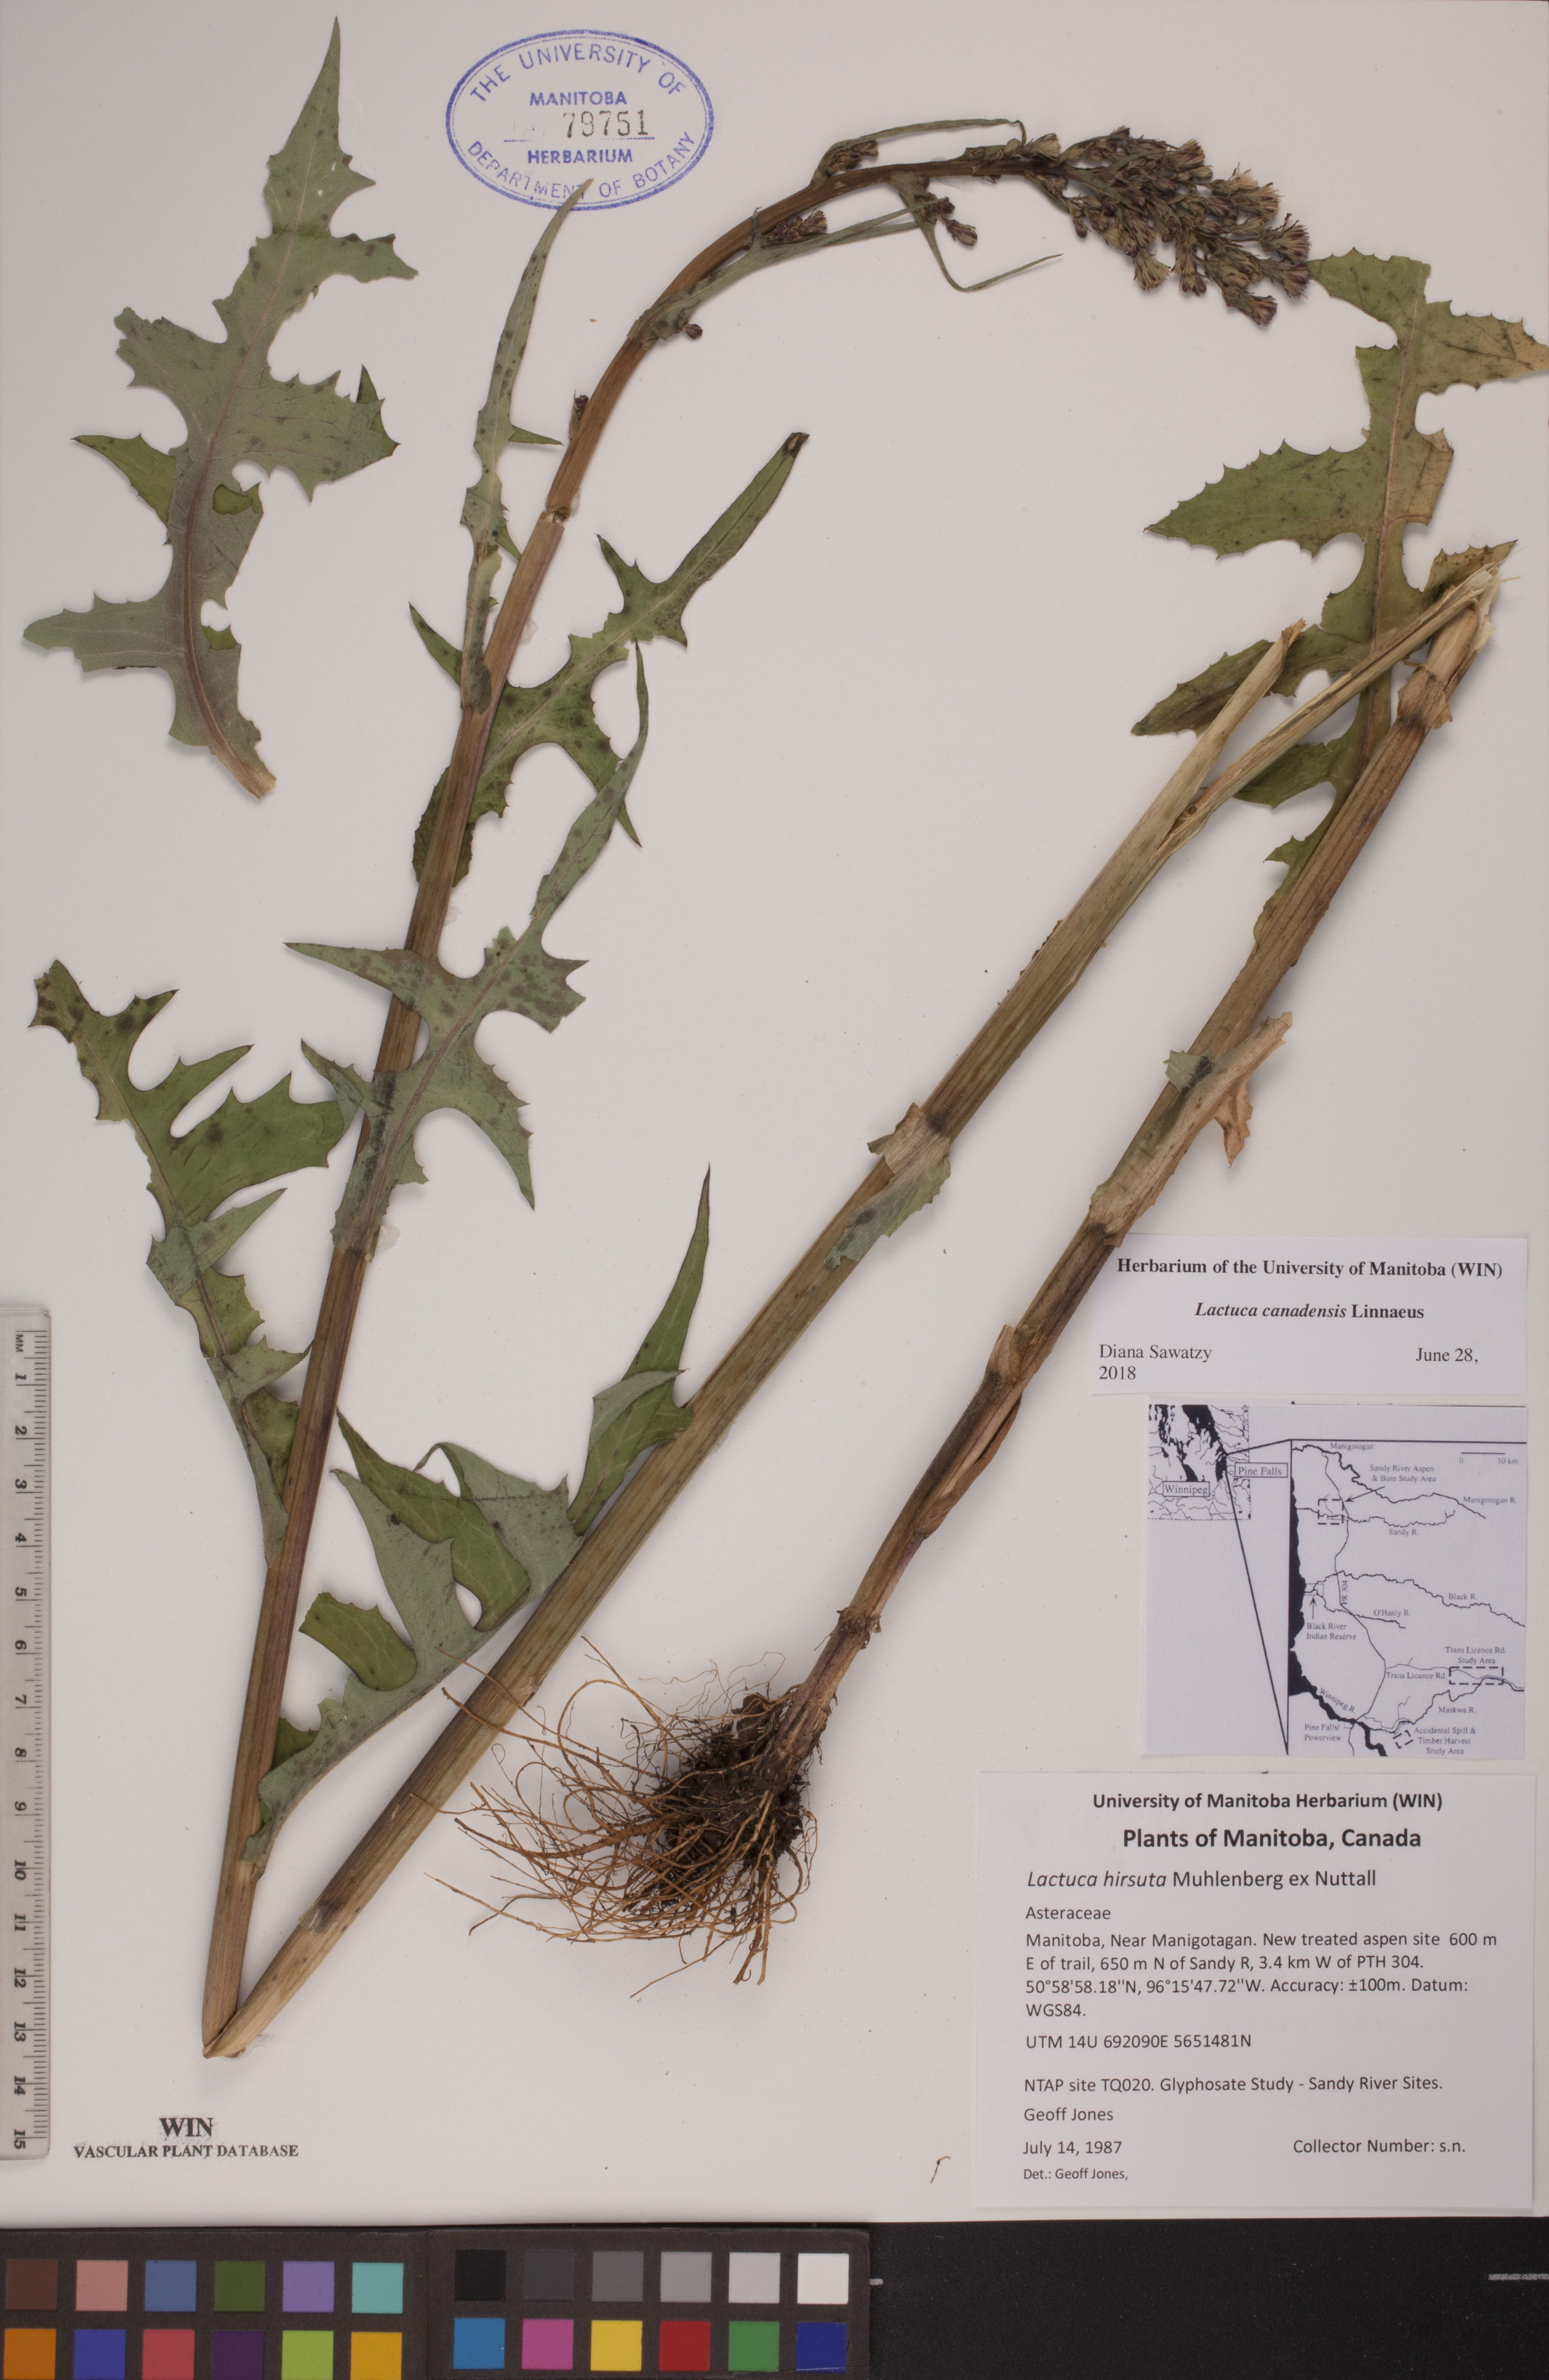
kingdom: Plantae
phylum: Tracheophyta
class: Magnoliopsida
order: Asterales
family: Asteraceae
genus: Lactuca
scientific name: Lactuca canadensis
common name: Canada lettuce
